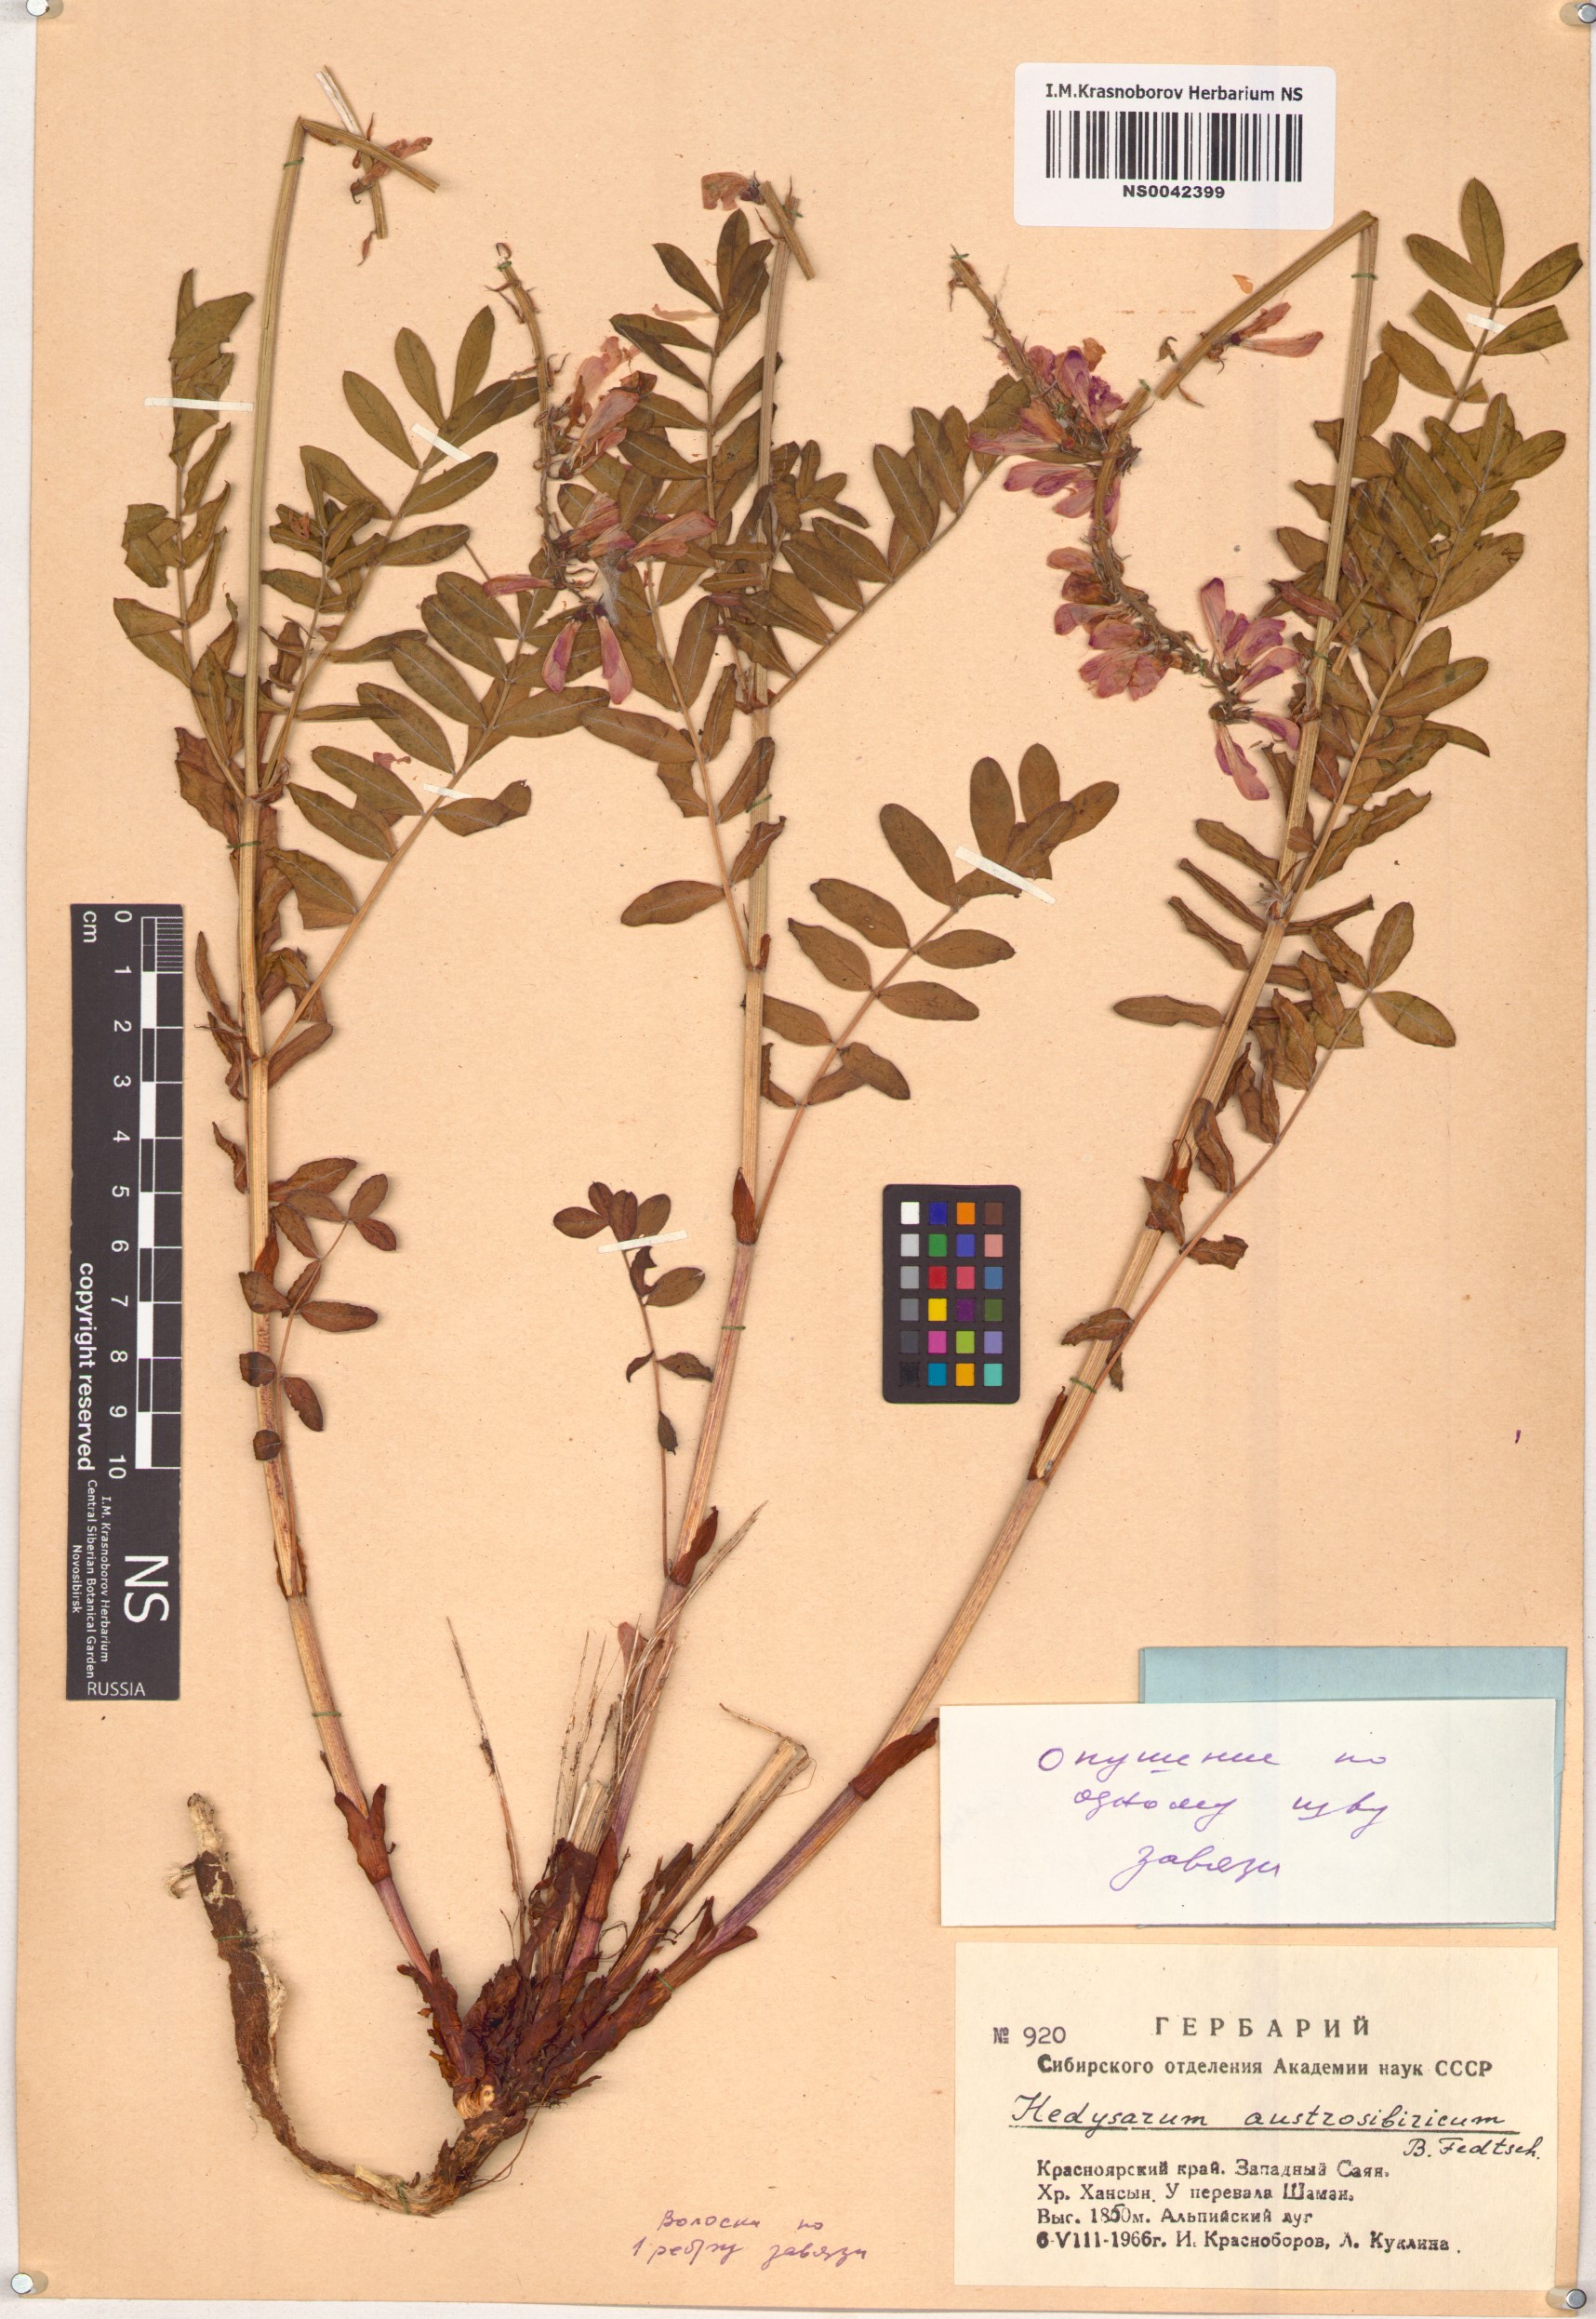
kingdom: Plantae
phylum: Tracheophyta
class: Magnoliopsida
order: Fabales
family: Fabaceae
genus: Hedysarum
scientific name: Hedysarum neglectum
